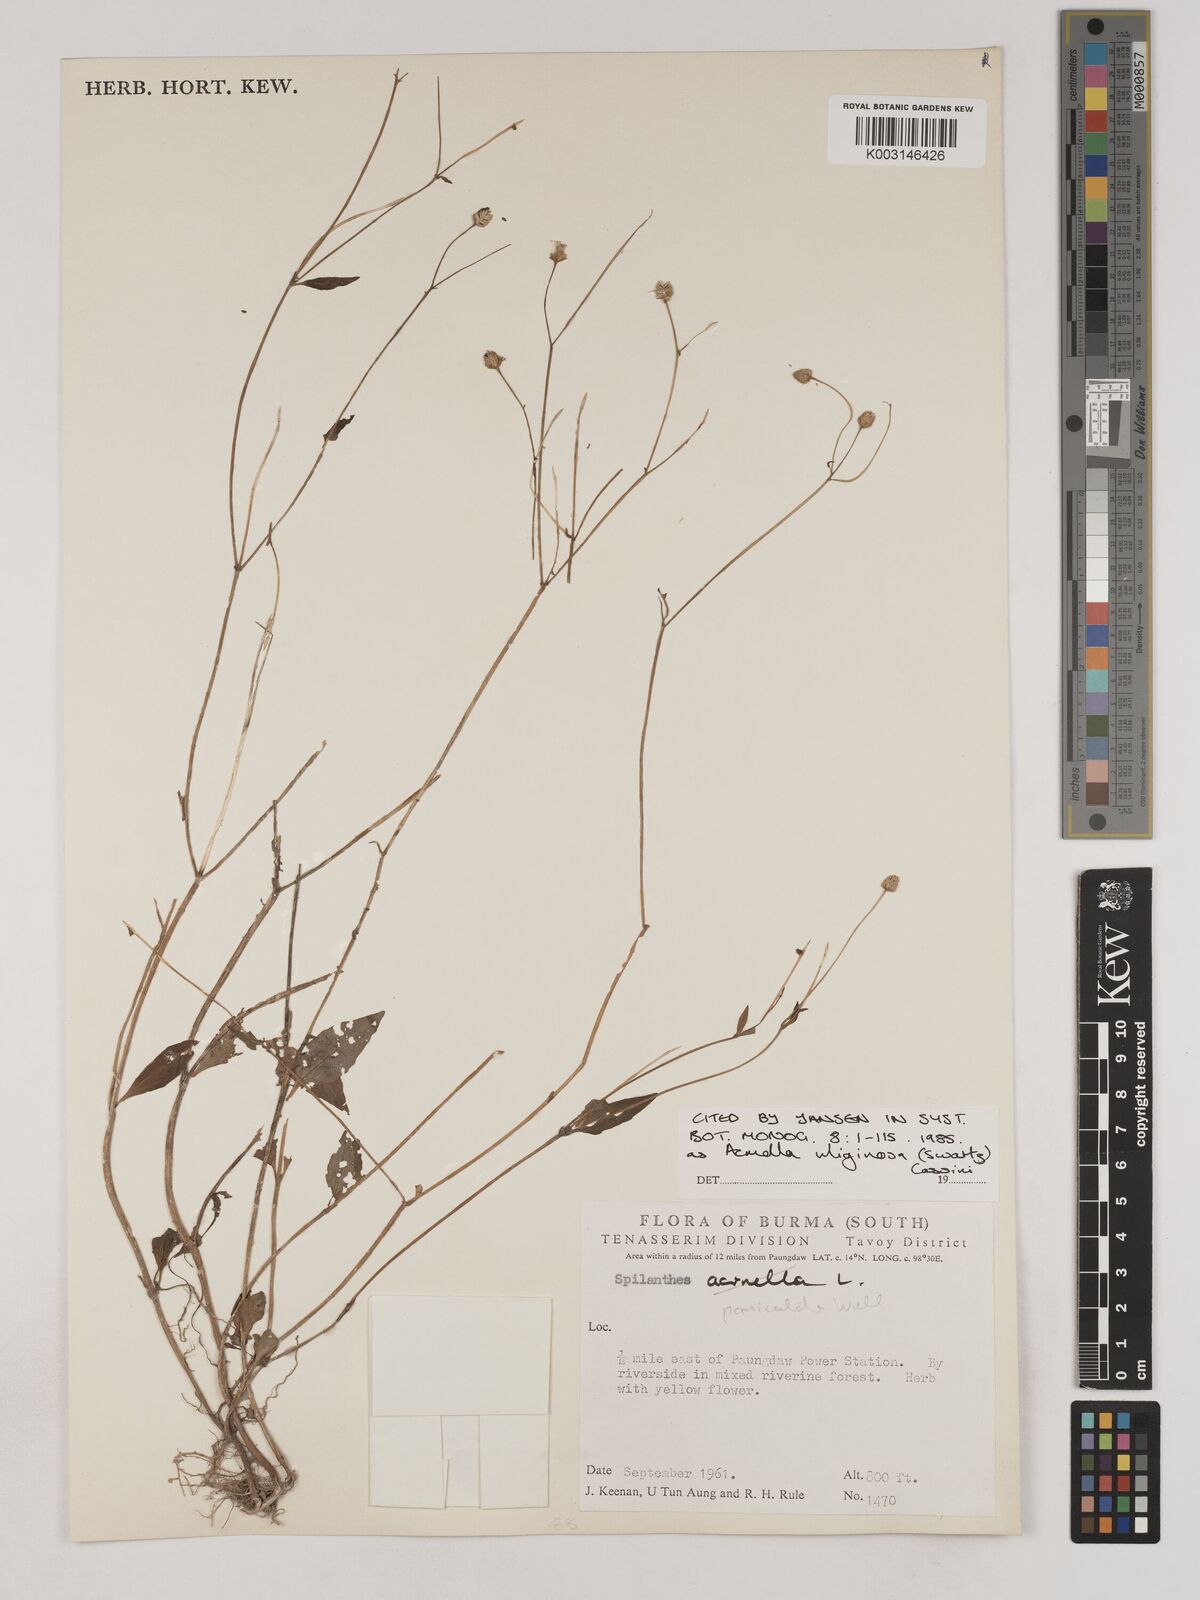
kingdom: Plantae
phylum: Tracheophyta
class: Magnoliopsida
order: Asterales
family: Asteraceae
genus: Acmella
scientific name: Acmella uliginosa
